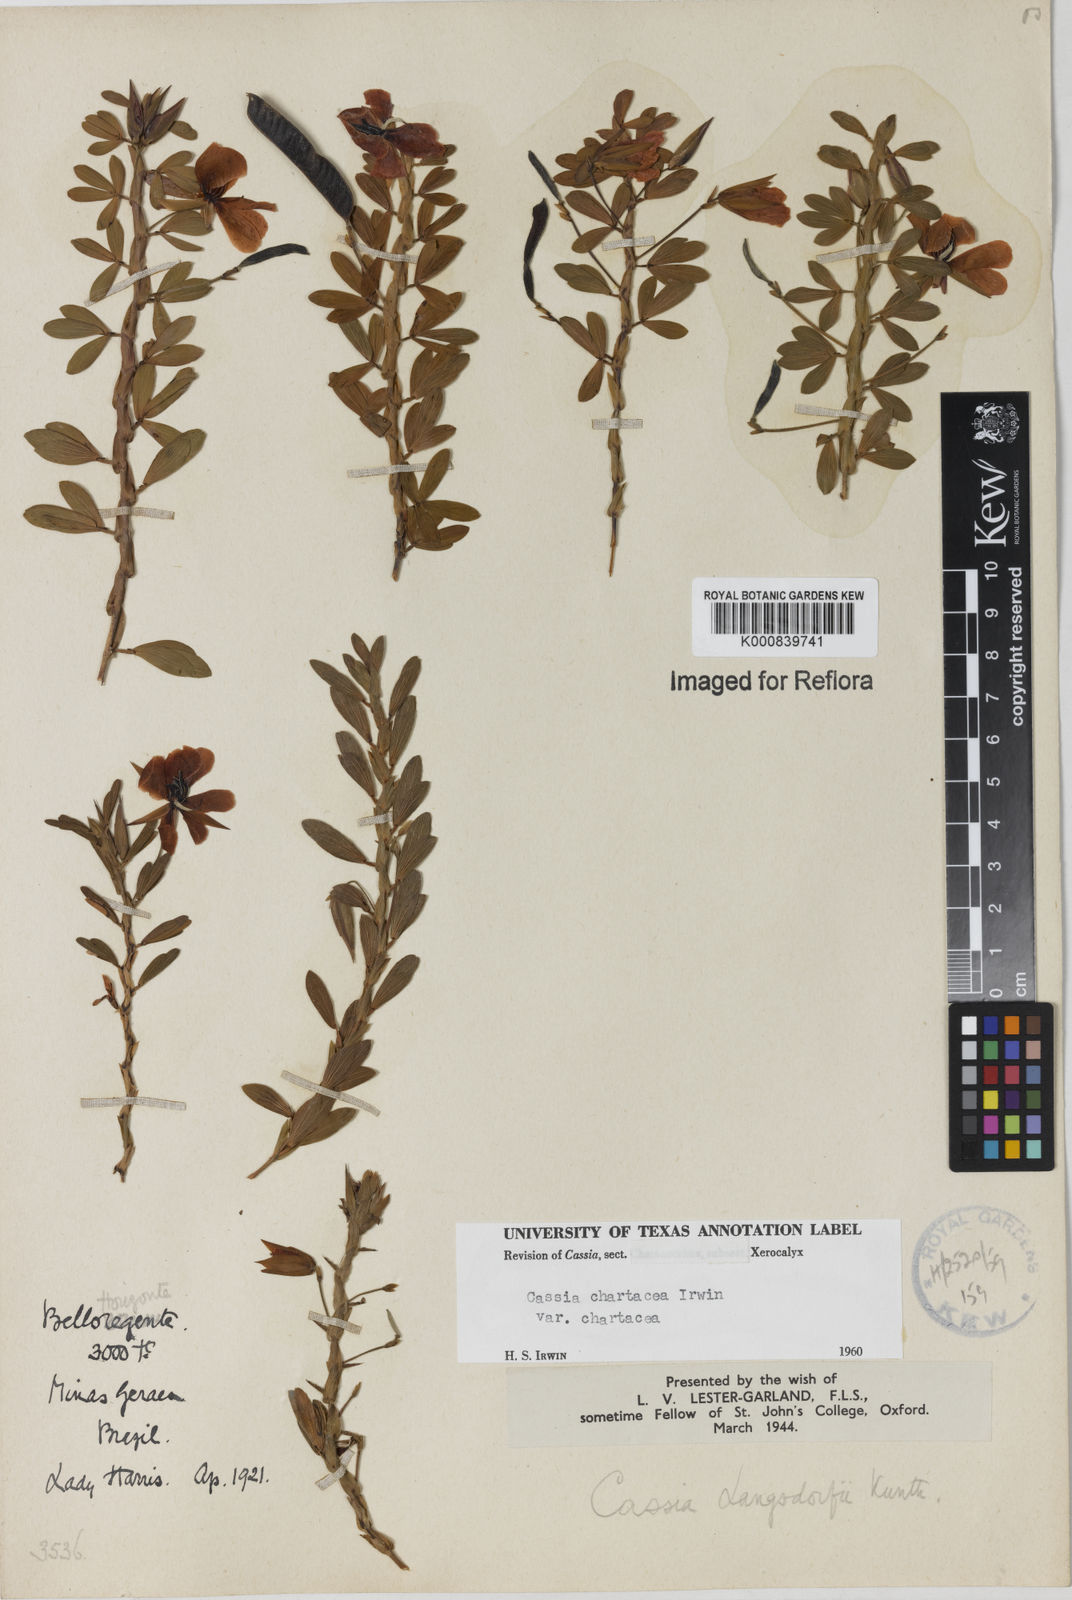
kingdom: Plantae
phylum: Tracheophyta
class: Magnoliopsida
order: Fabales
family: Fabaceae
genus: Chamaecrista
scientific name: Chamaecrista langsdorffii
